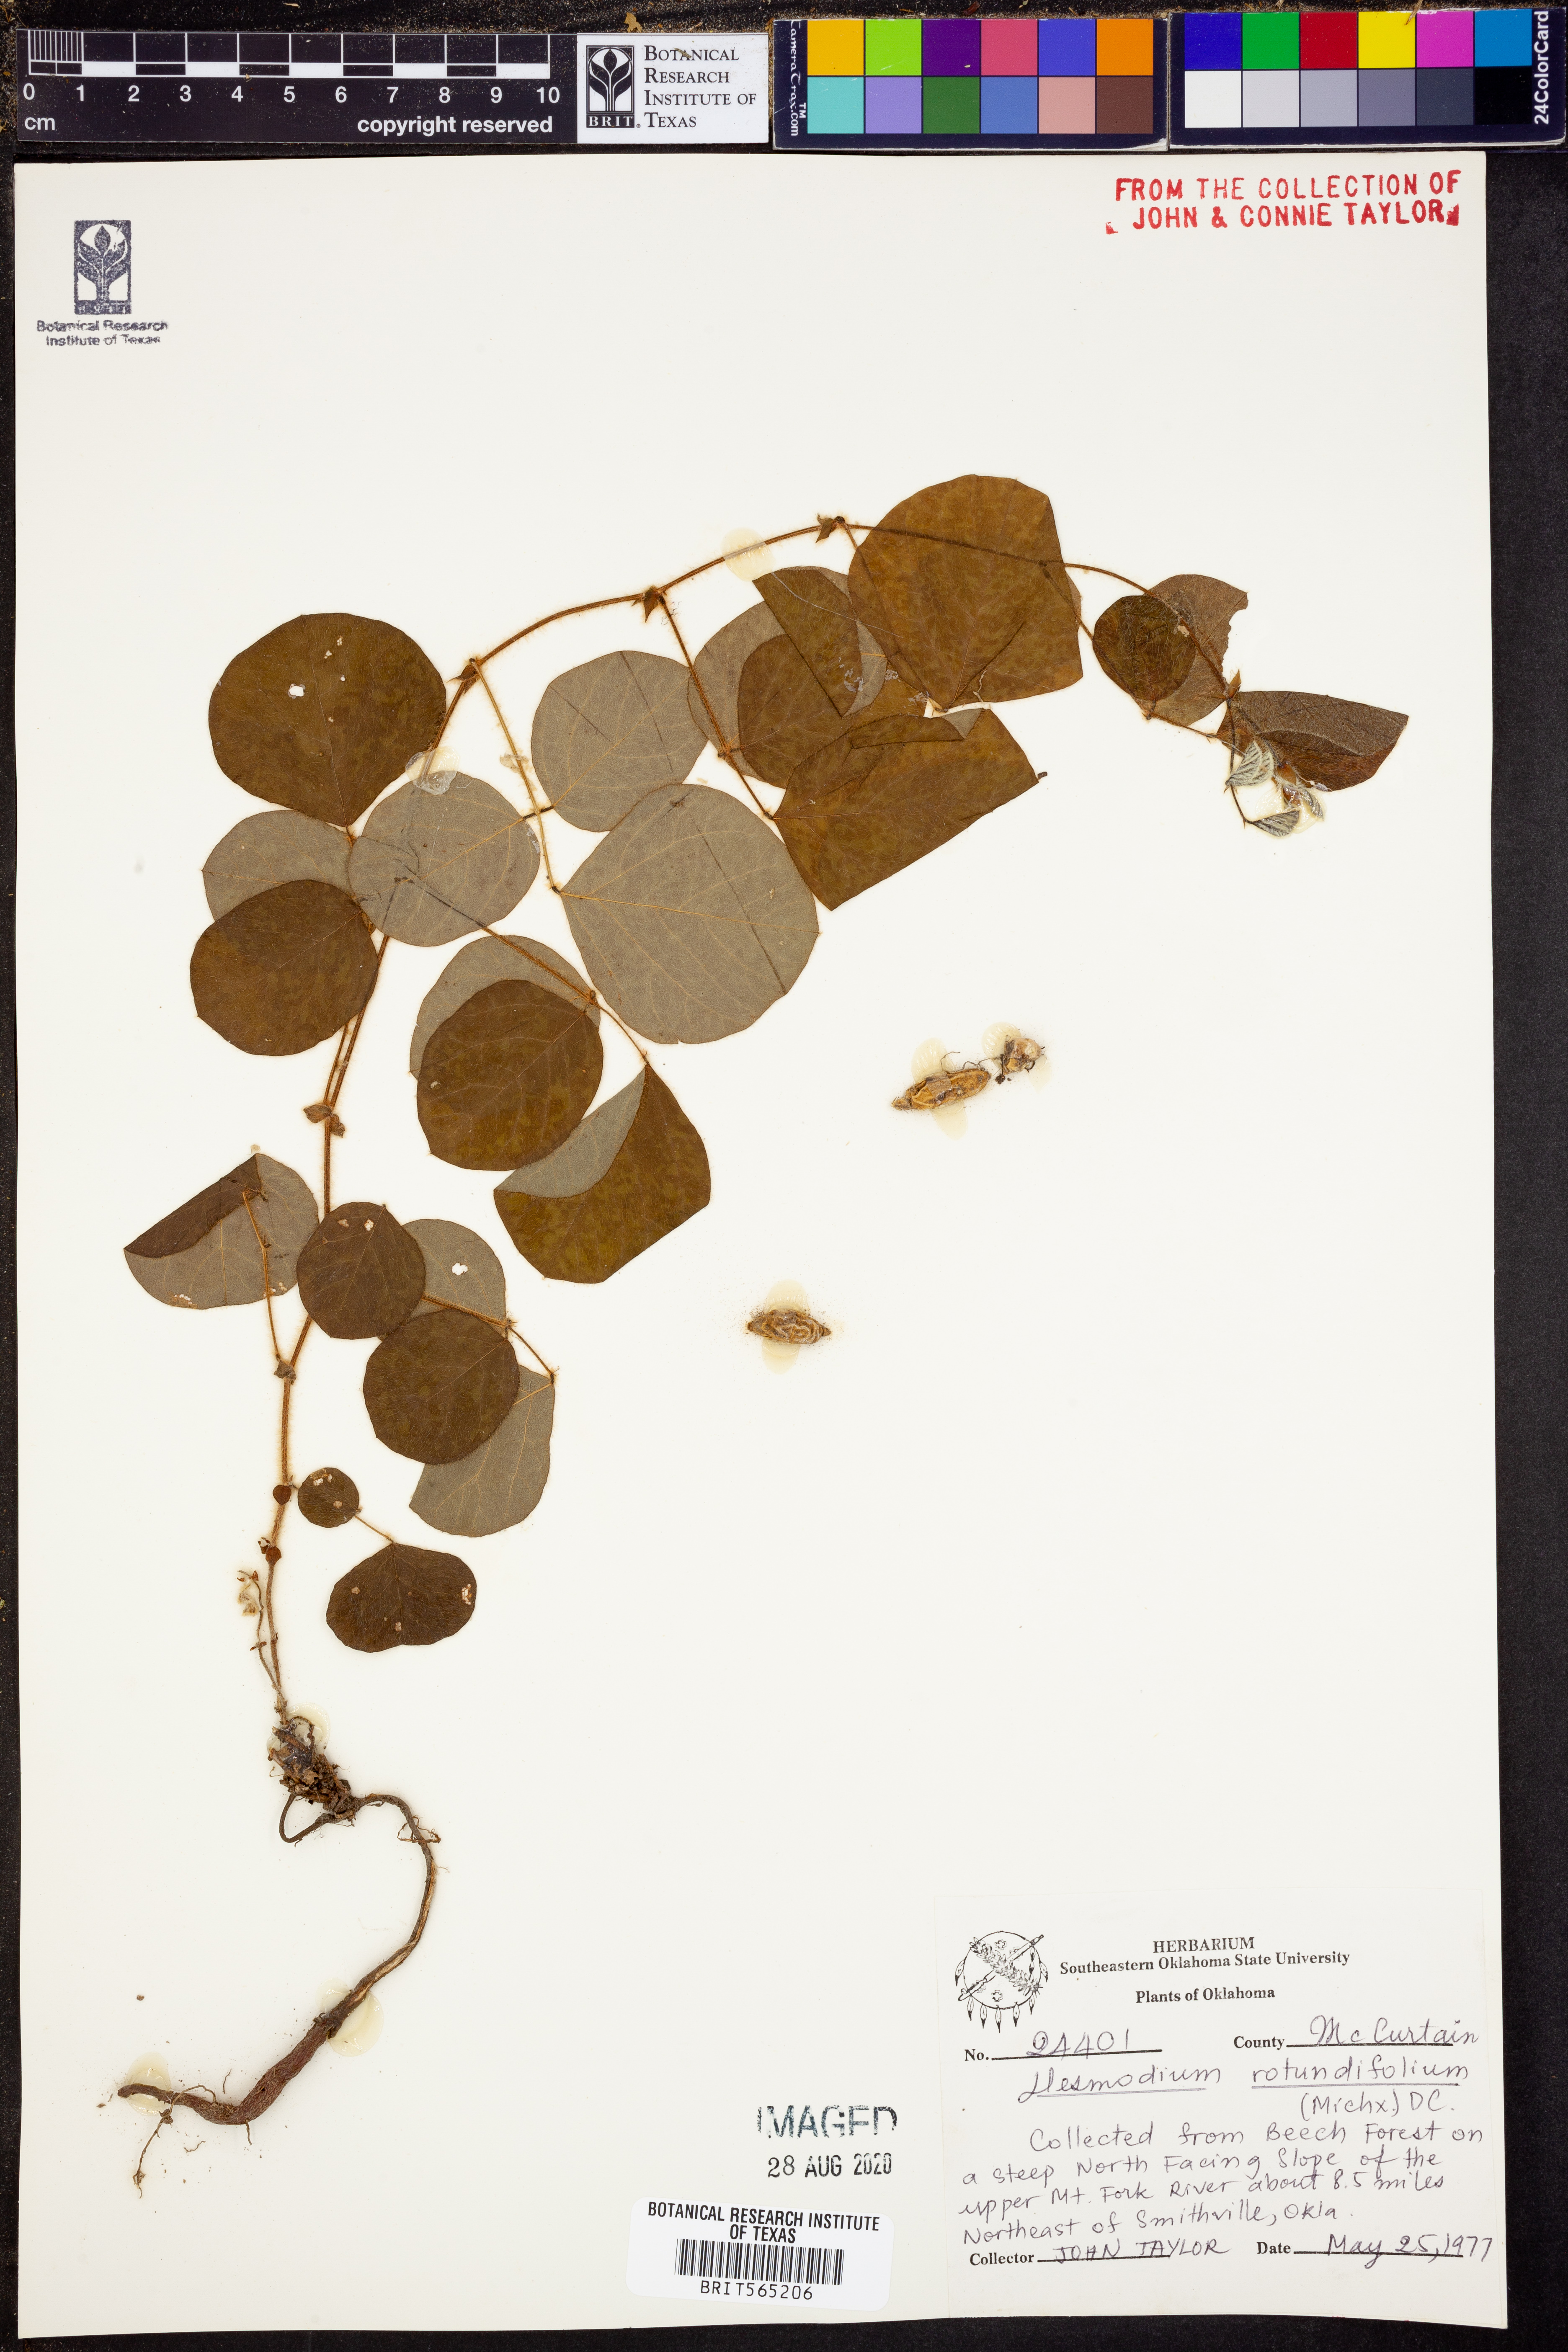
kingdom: Plantae
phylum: Tracheophyta
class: Magnoliopsida
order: Fabales
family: Fabaceae
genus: Desmodium
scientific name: Desmodium rotundifolium
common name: Dollarleaf
